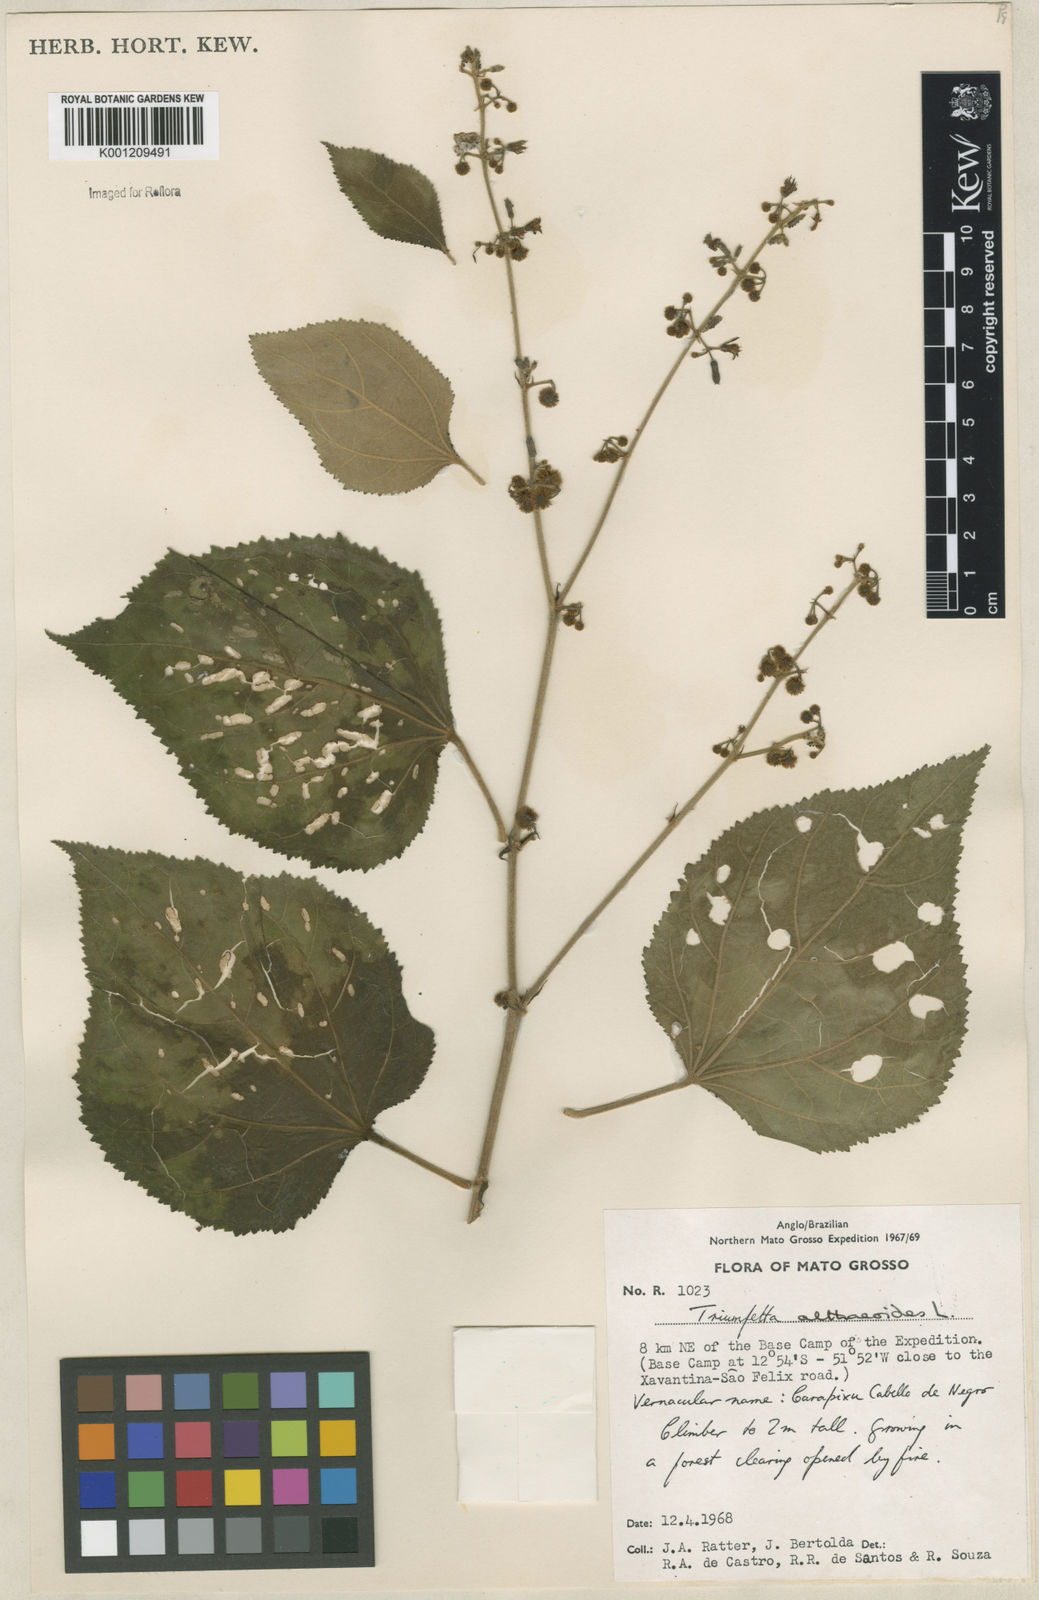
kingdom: Plantae
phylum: Tracheophyta
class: Magnoliopsida
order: Malvales
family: Malvaceae
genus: Triumfetta
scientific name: Triumfetta althaeoides
